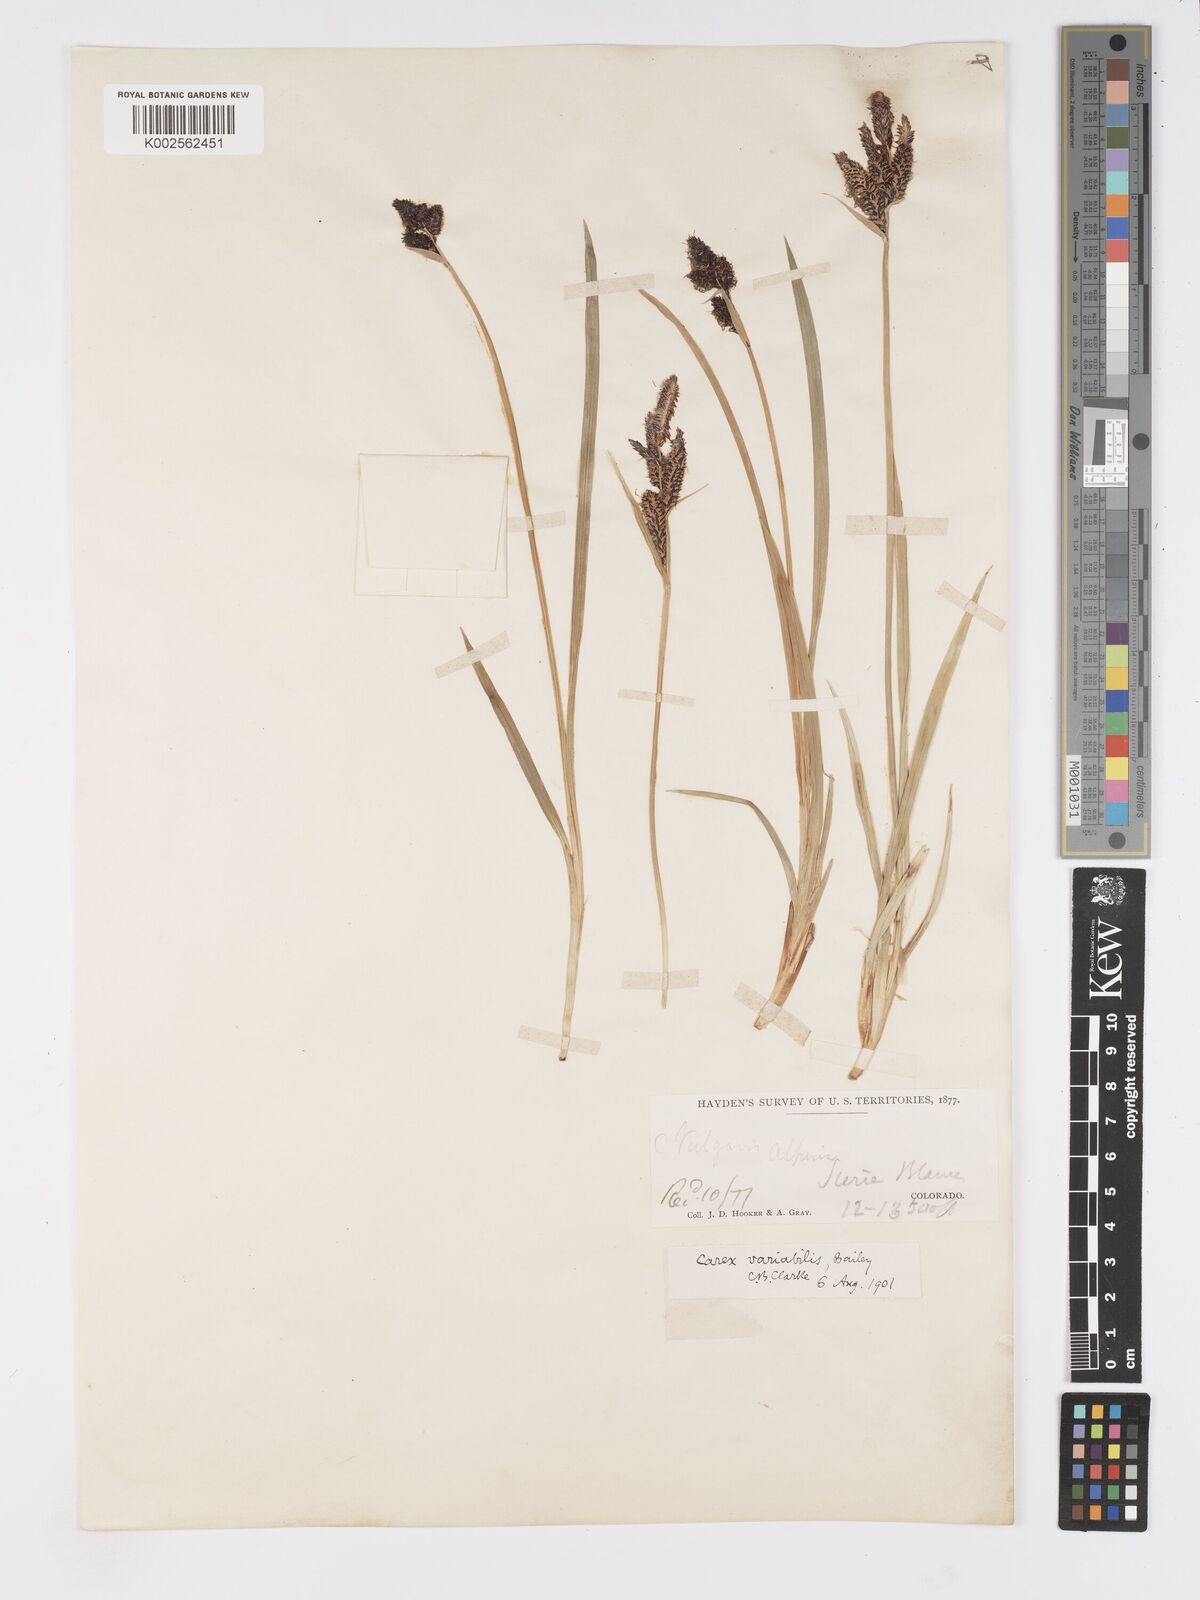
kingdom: Plantae
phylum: Tracheophyta
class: Liliopsida
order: Poales
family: Cyperaceae
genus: Carex
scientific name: Carex
